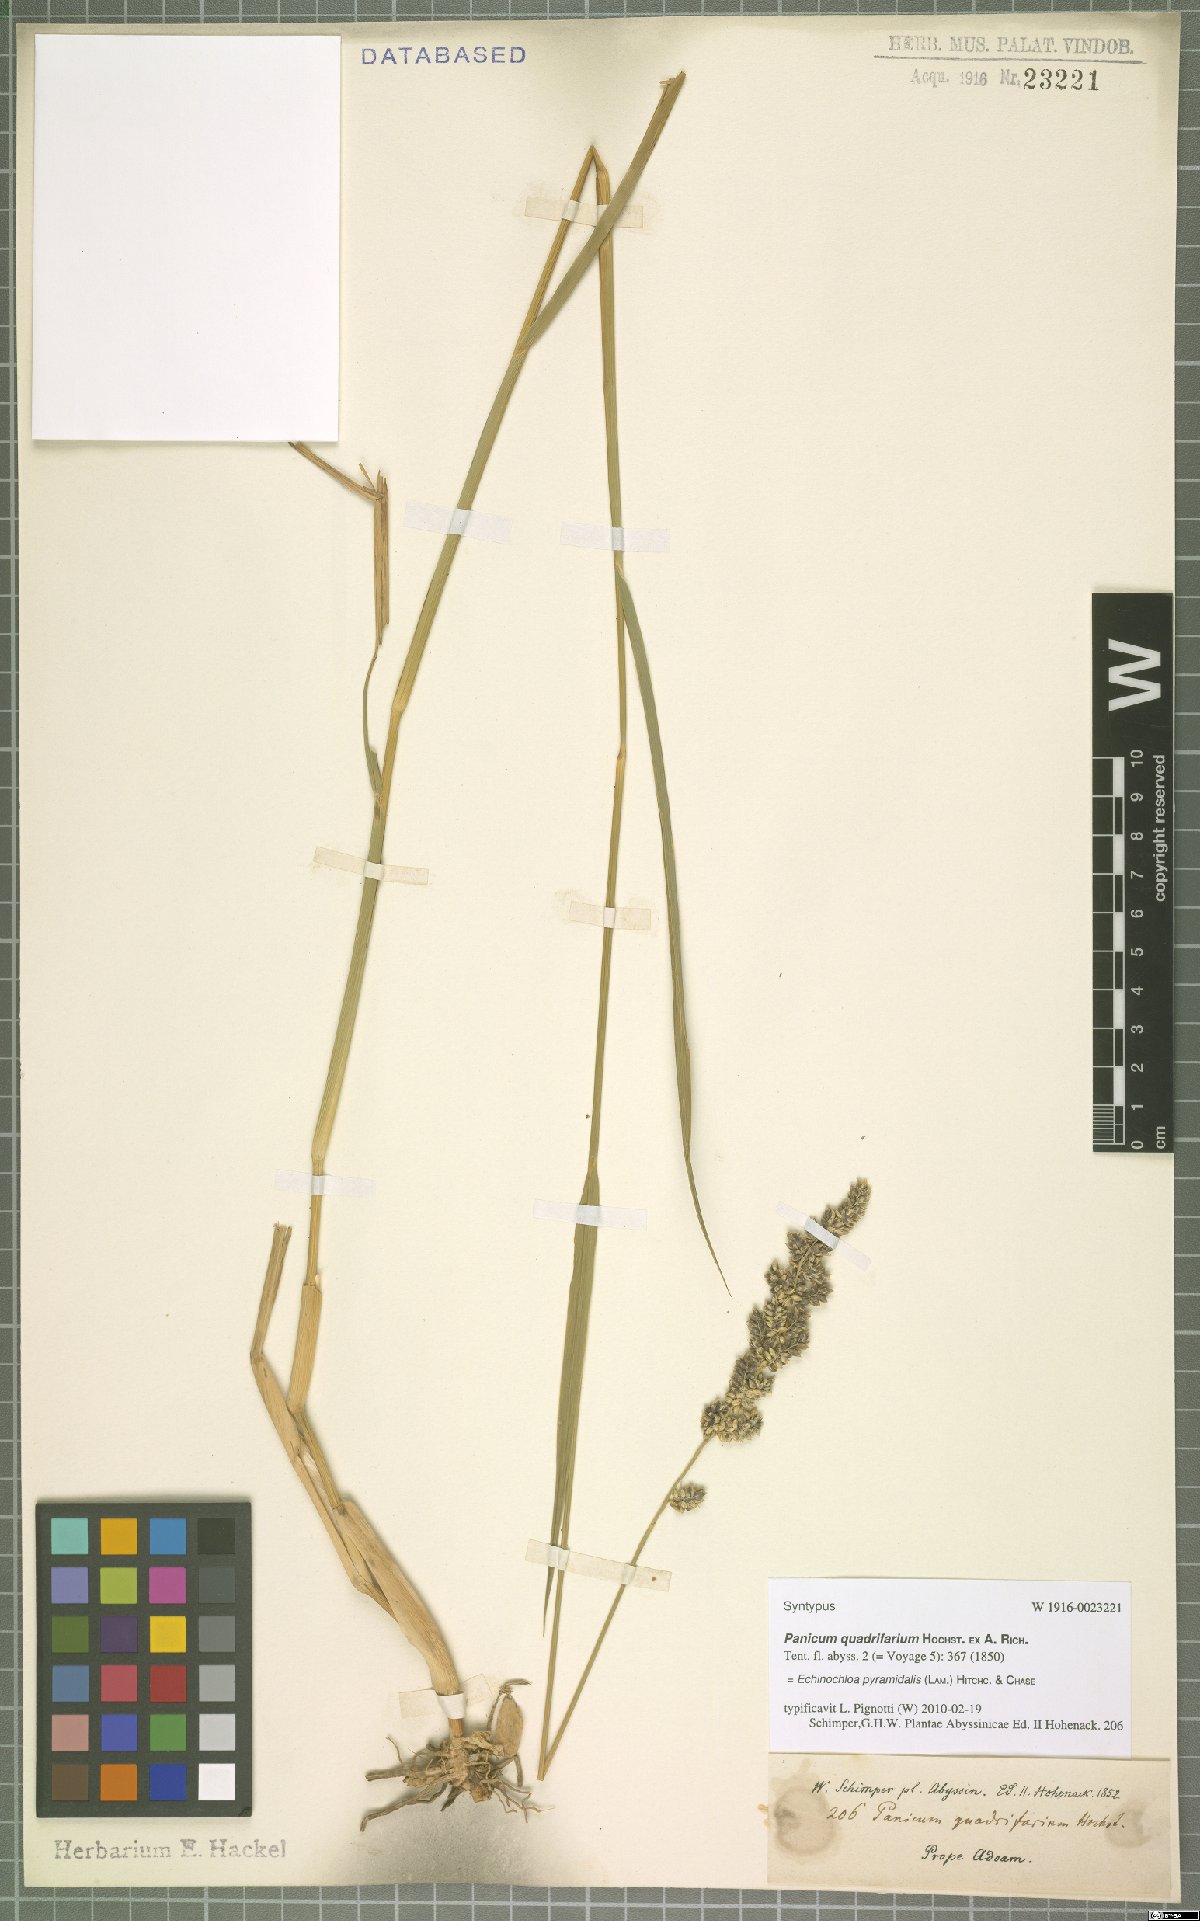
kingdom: Plantae
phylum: Tracheophyta
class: Liliopsida
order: Poales
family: Poaceae
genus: Echinochloa
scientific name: Echinochloa pyramidalis
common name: Antelope grass
